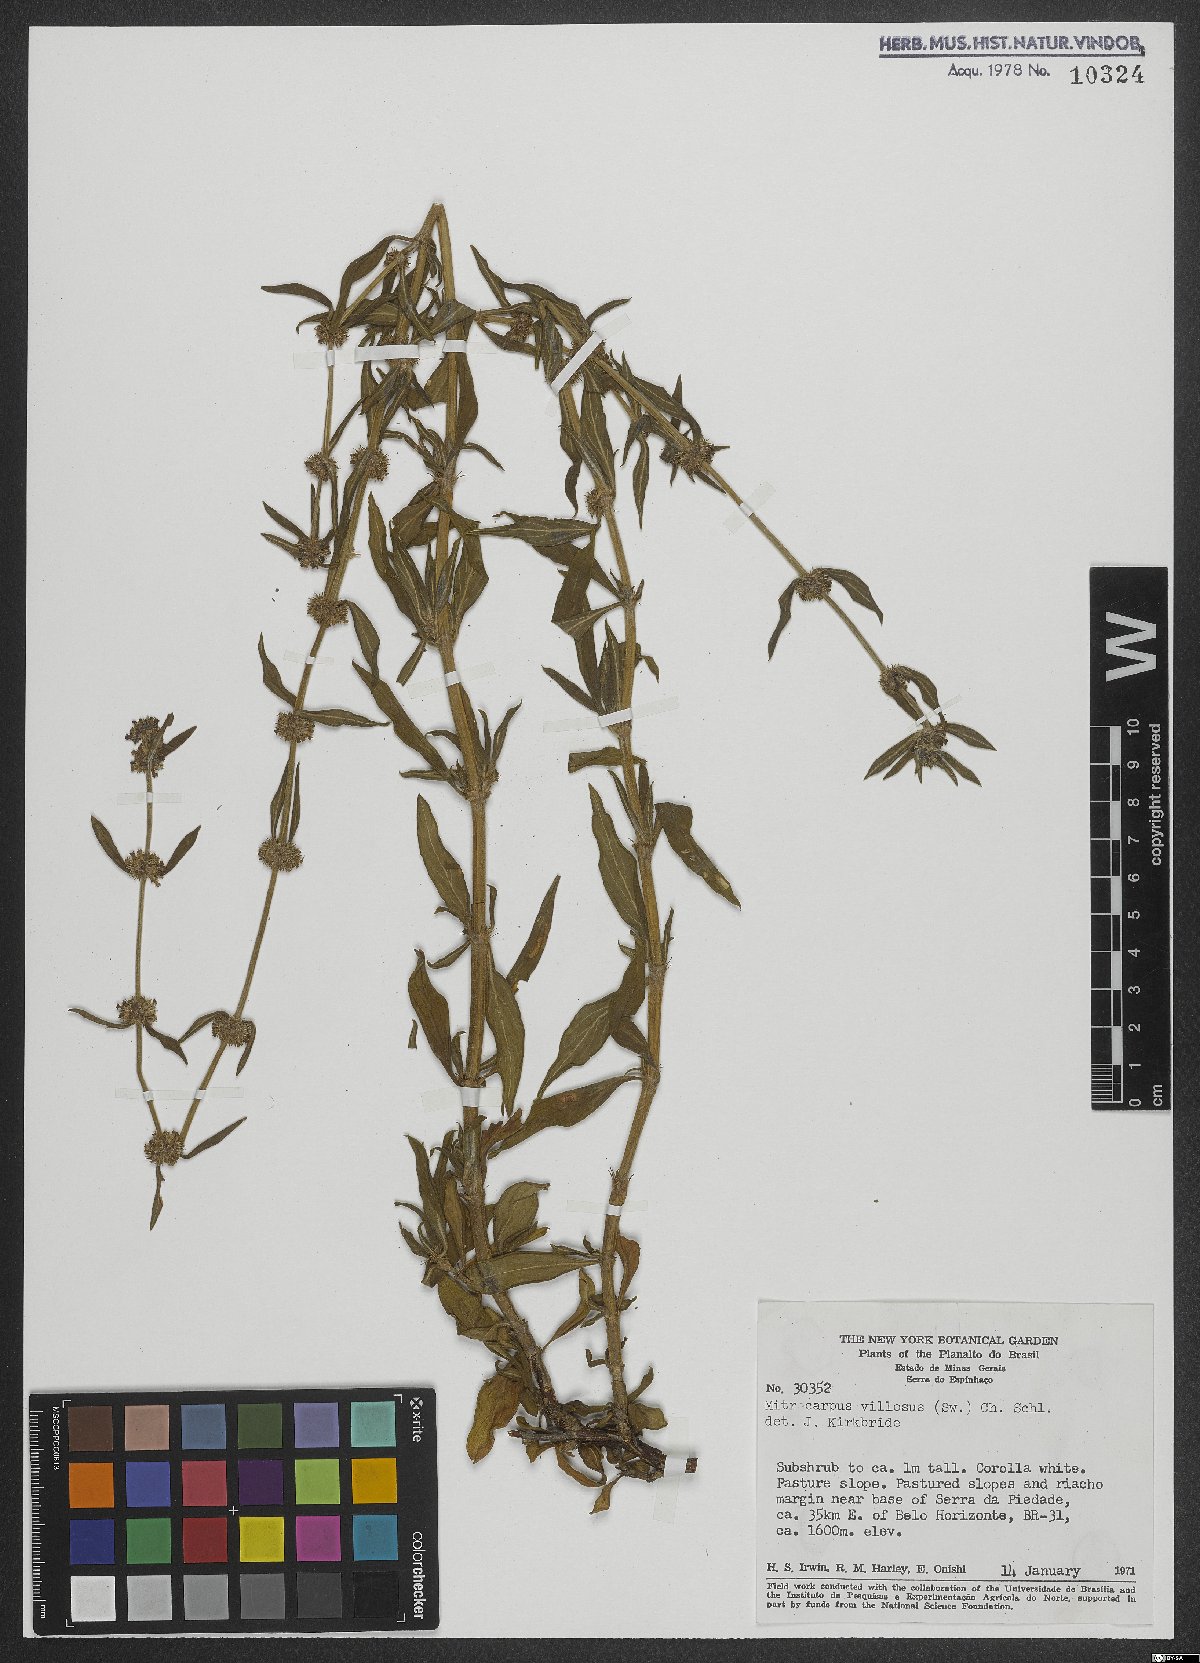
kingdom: Plantae
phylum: Tracheophyta
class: Magnoliopsida
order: Gentianales
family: Rubiaceae
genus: Mitracarpus
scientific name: Mitracarpus hirtus
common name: Tropical girdlepod
